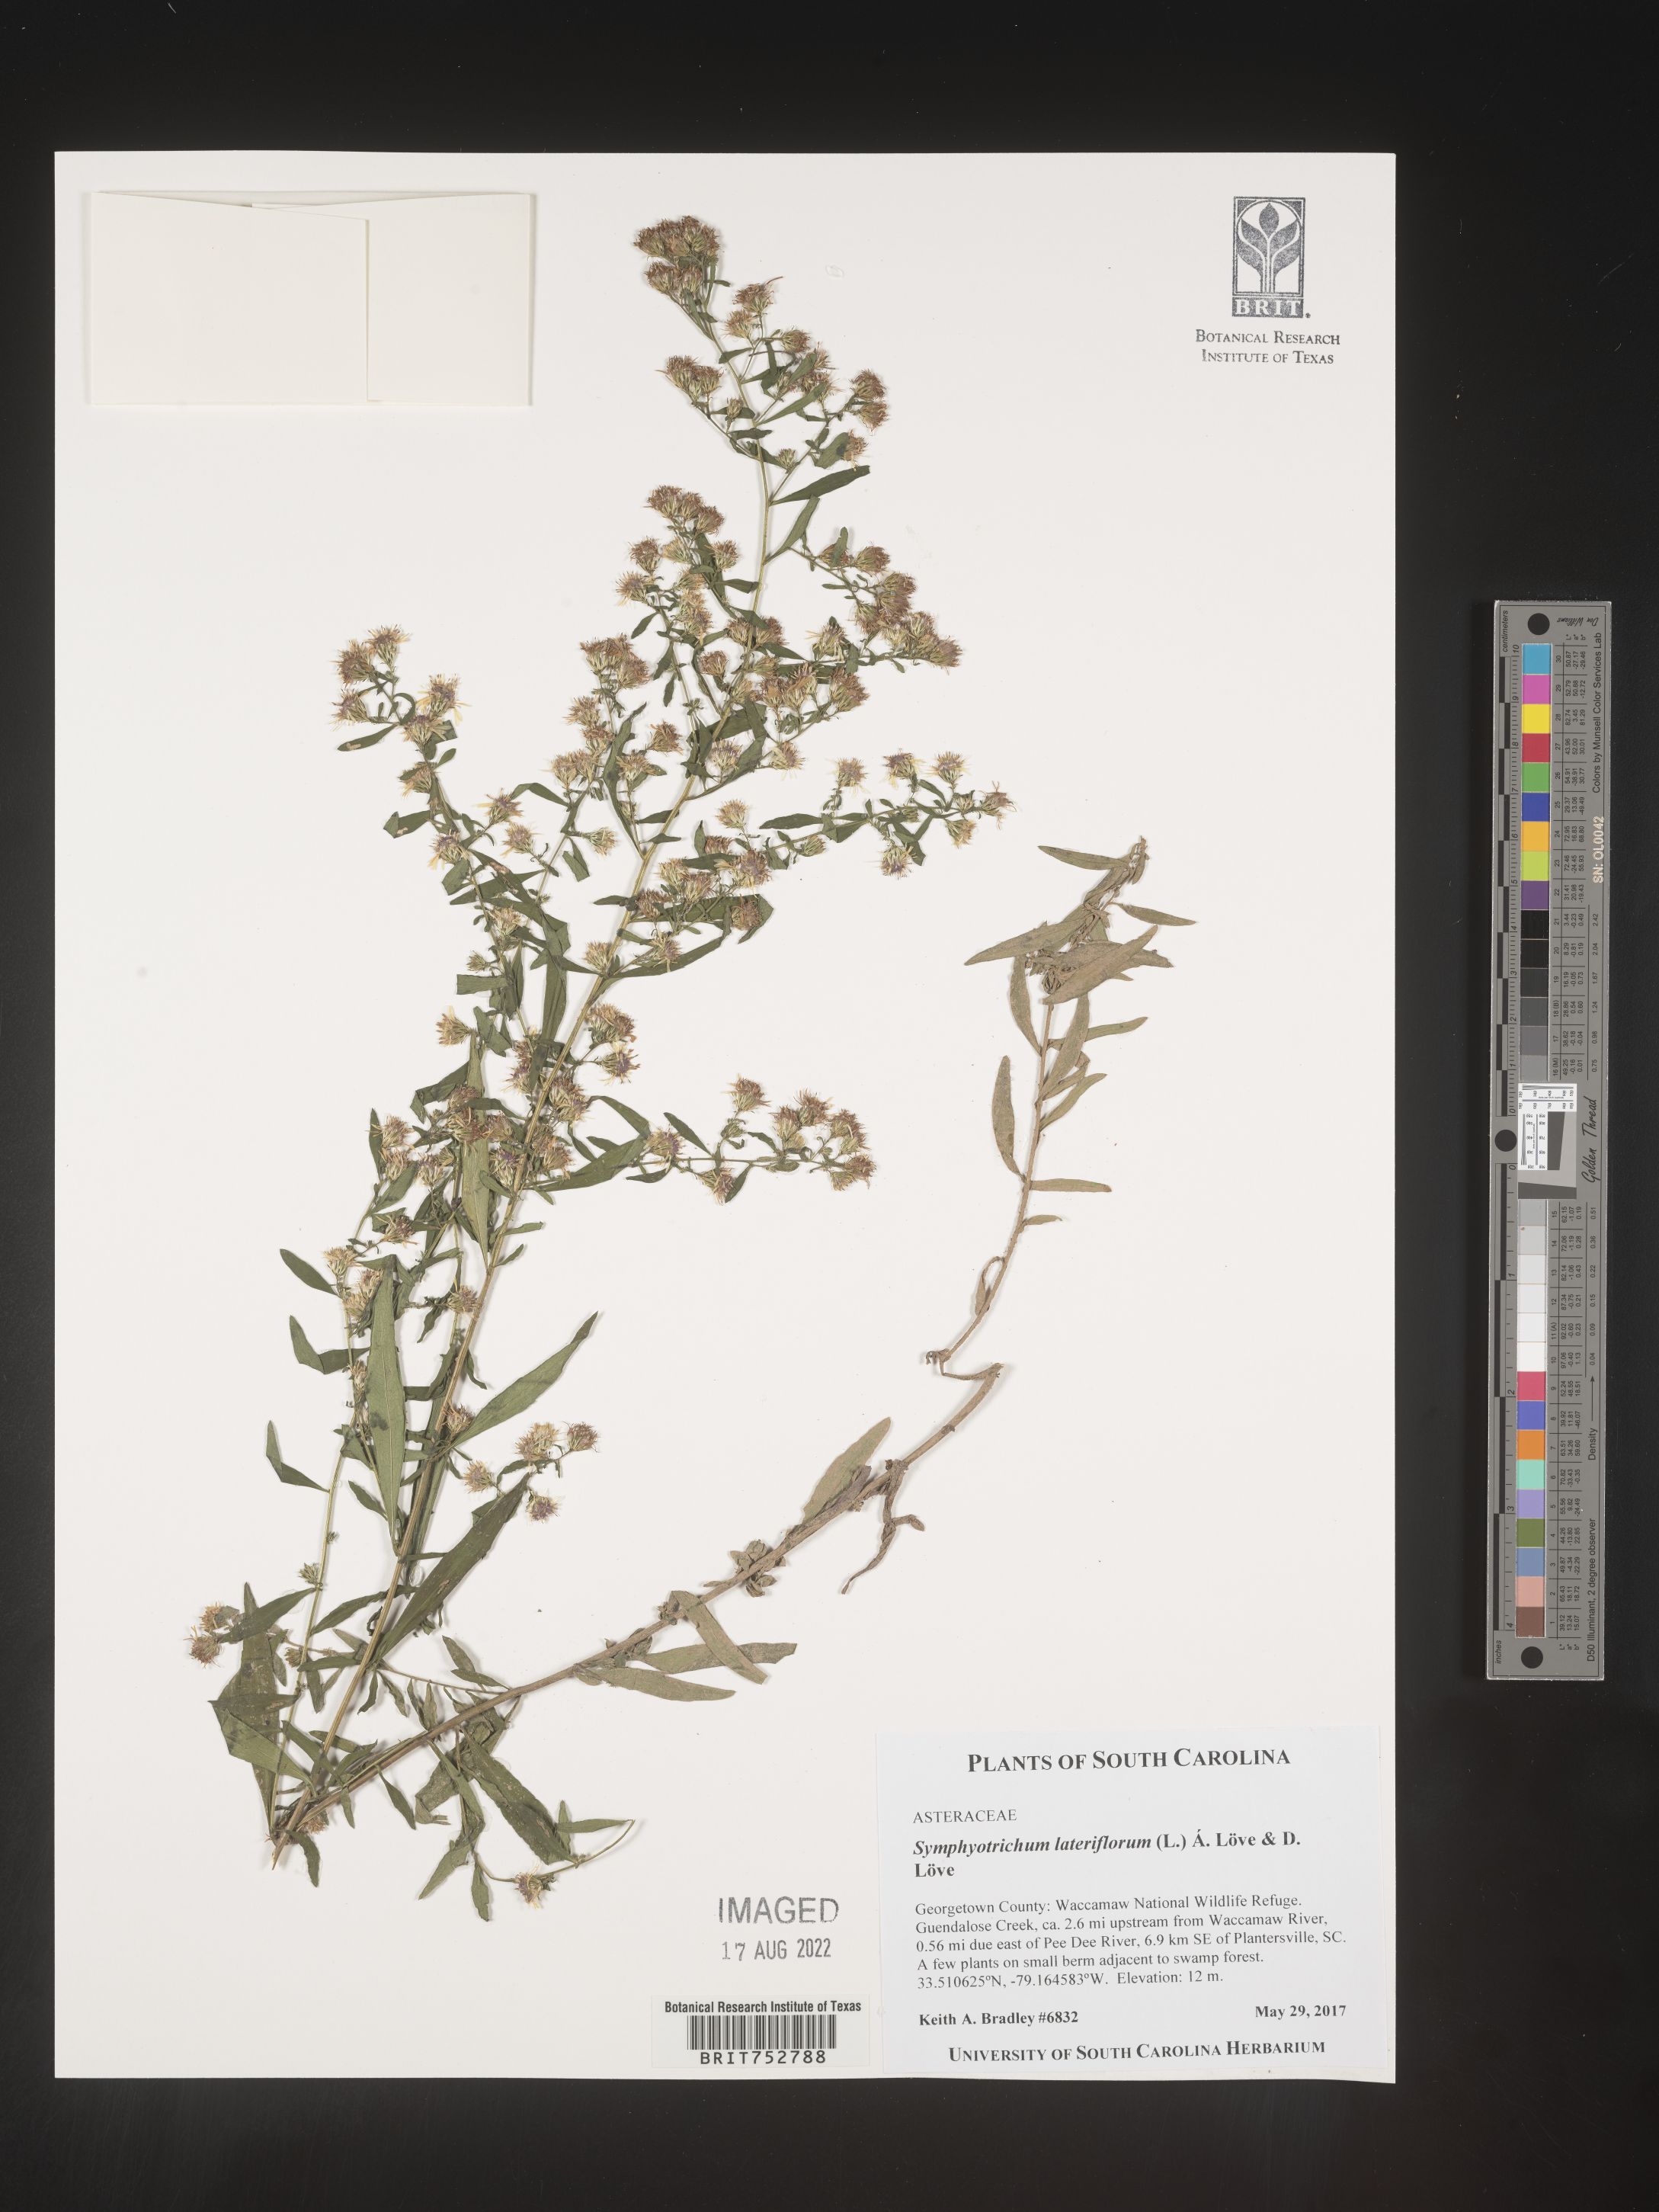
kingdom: Plantae
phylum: Tracheophyta
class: Magnoliopsida
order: Asterales
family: Asteraceae
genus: Symphyotrichum
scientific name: Symphyotrichum lateriflorum
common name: Calico aster
